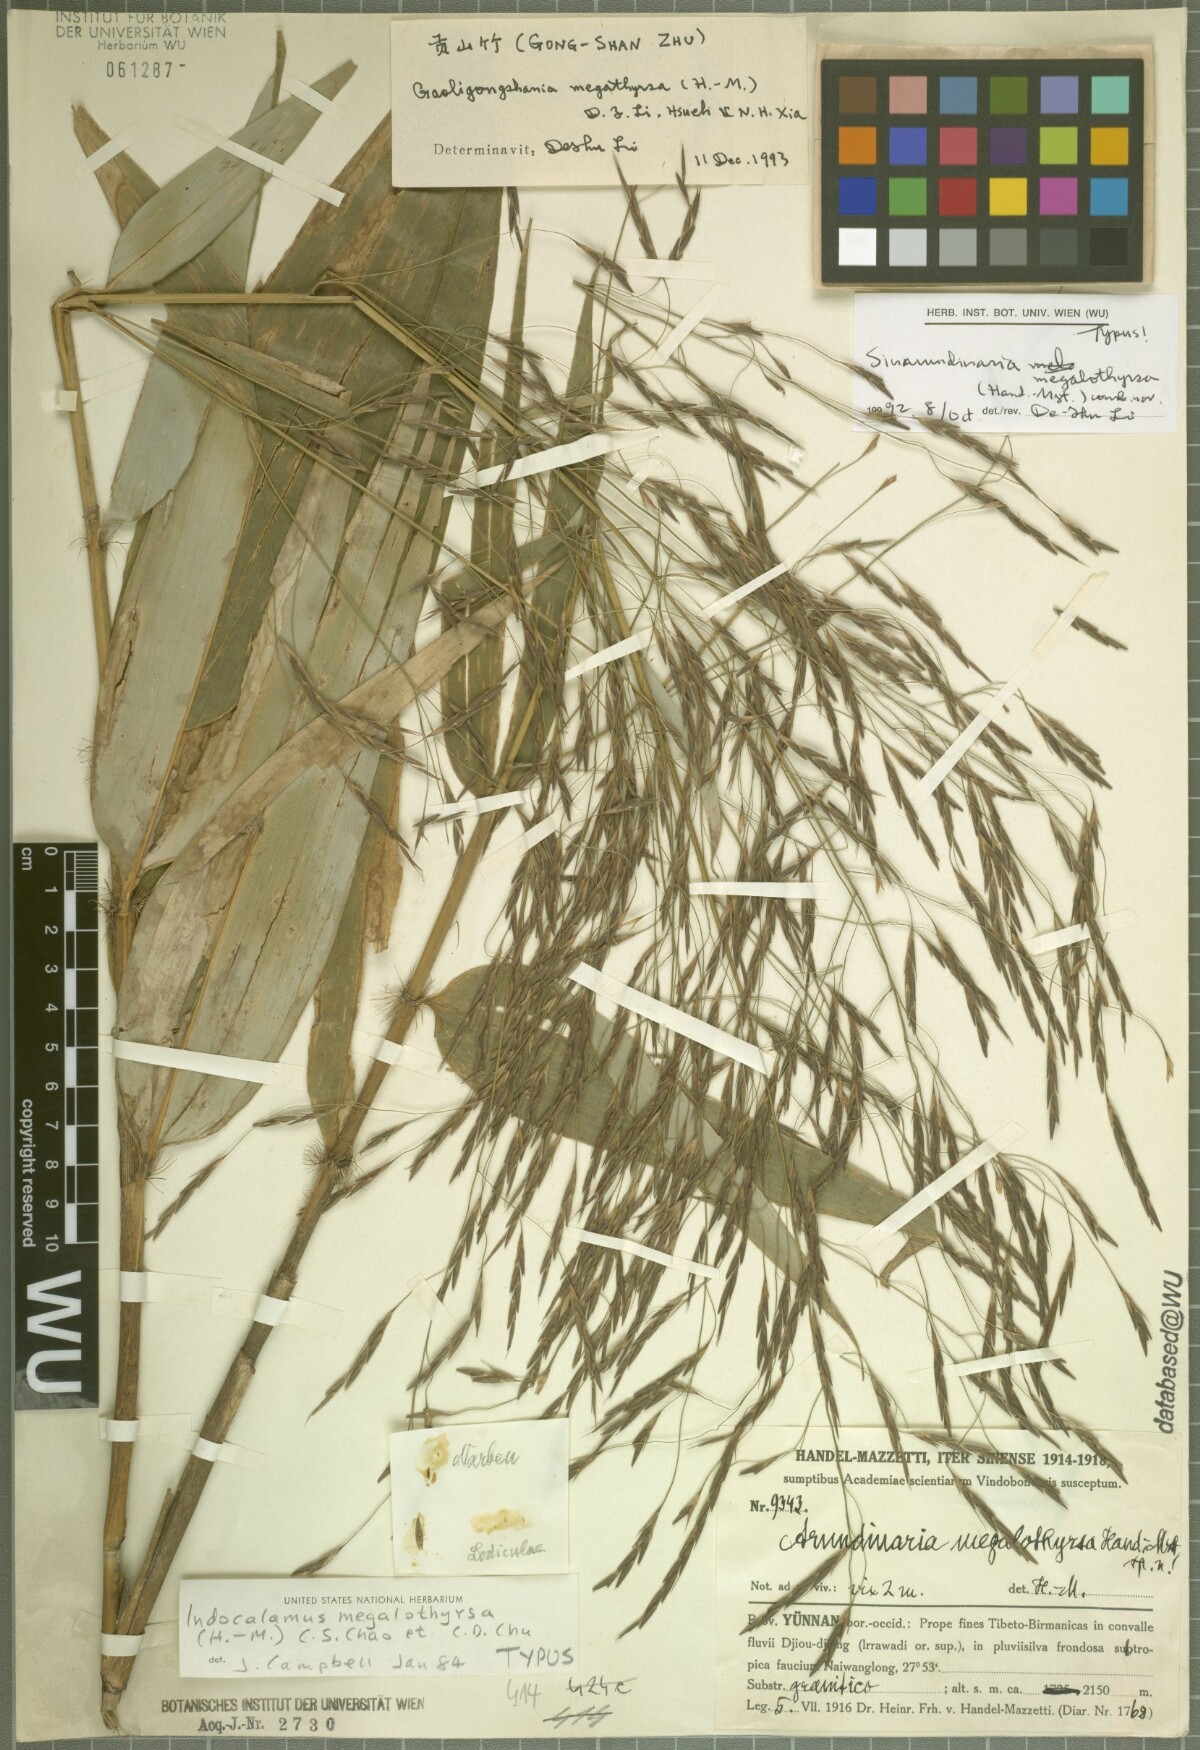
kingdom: Plantae
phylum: Tracheophyta
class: Liliopsida
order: Poales
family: Poaceae
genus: Gaoligongshania
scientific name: Gaoligongshania megalothyrsa
